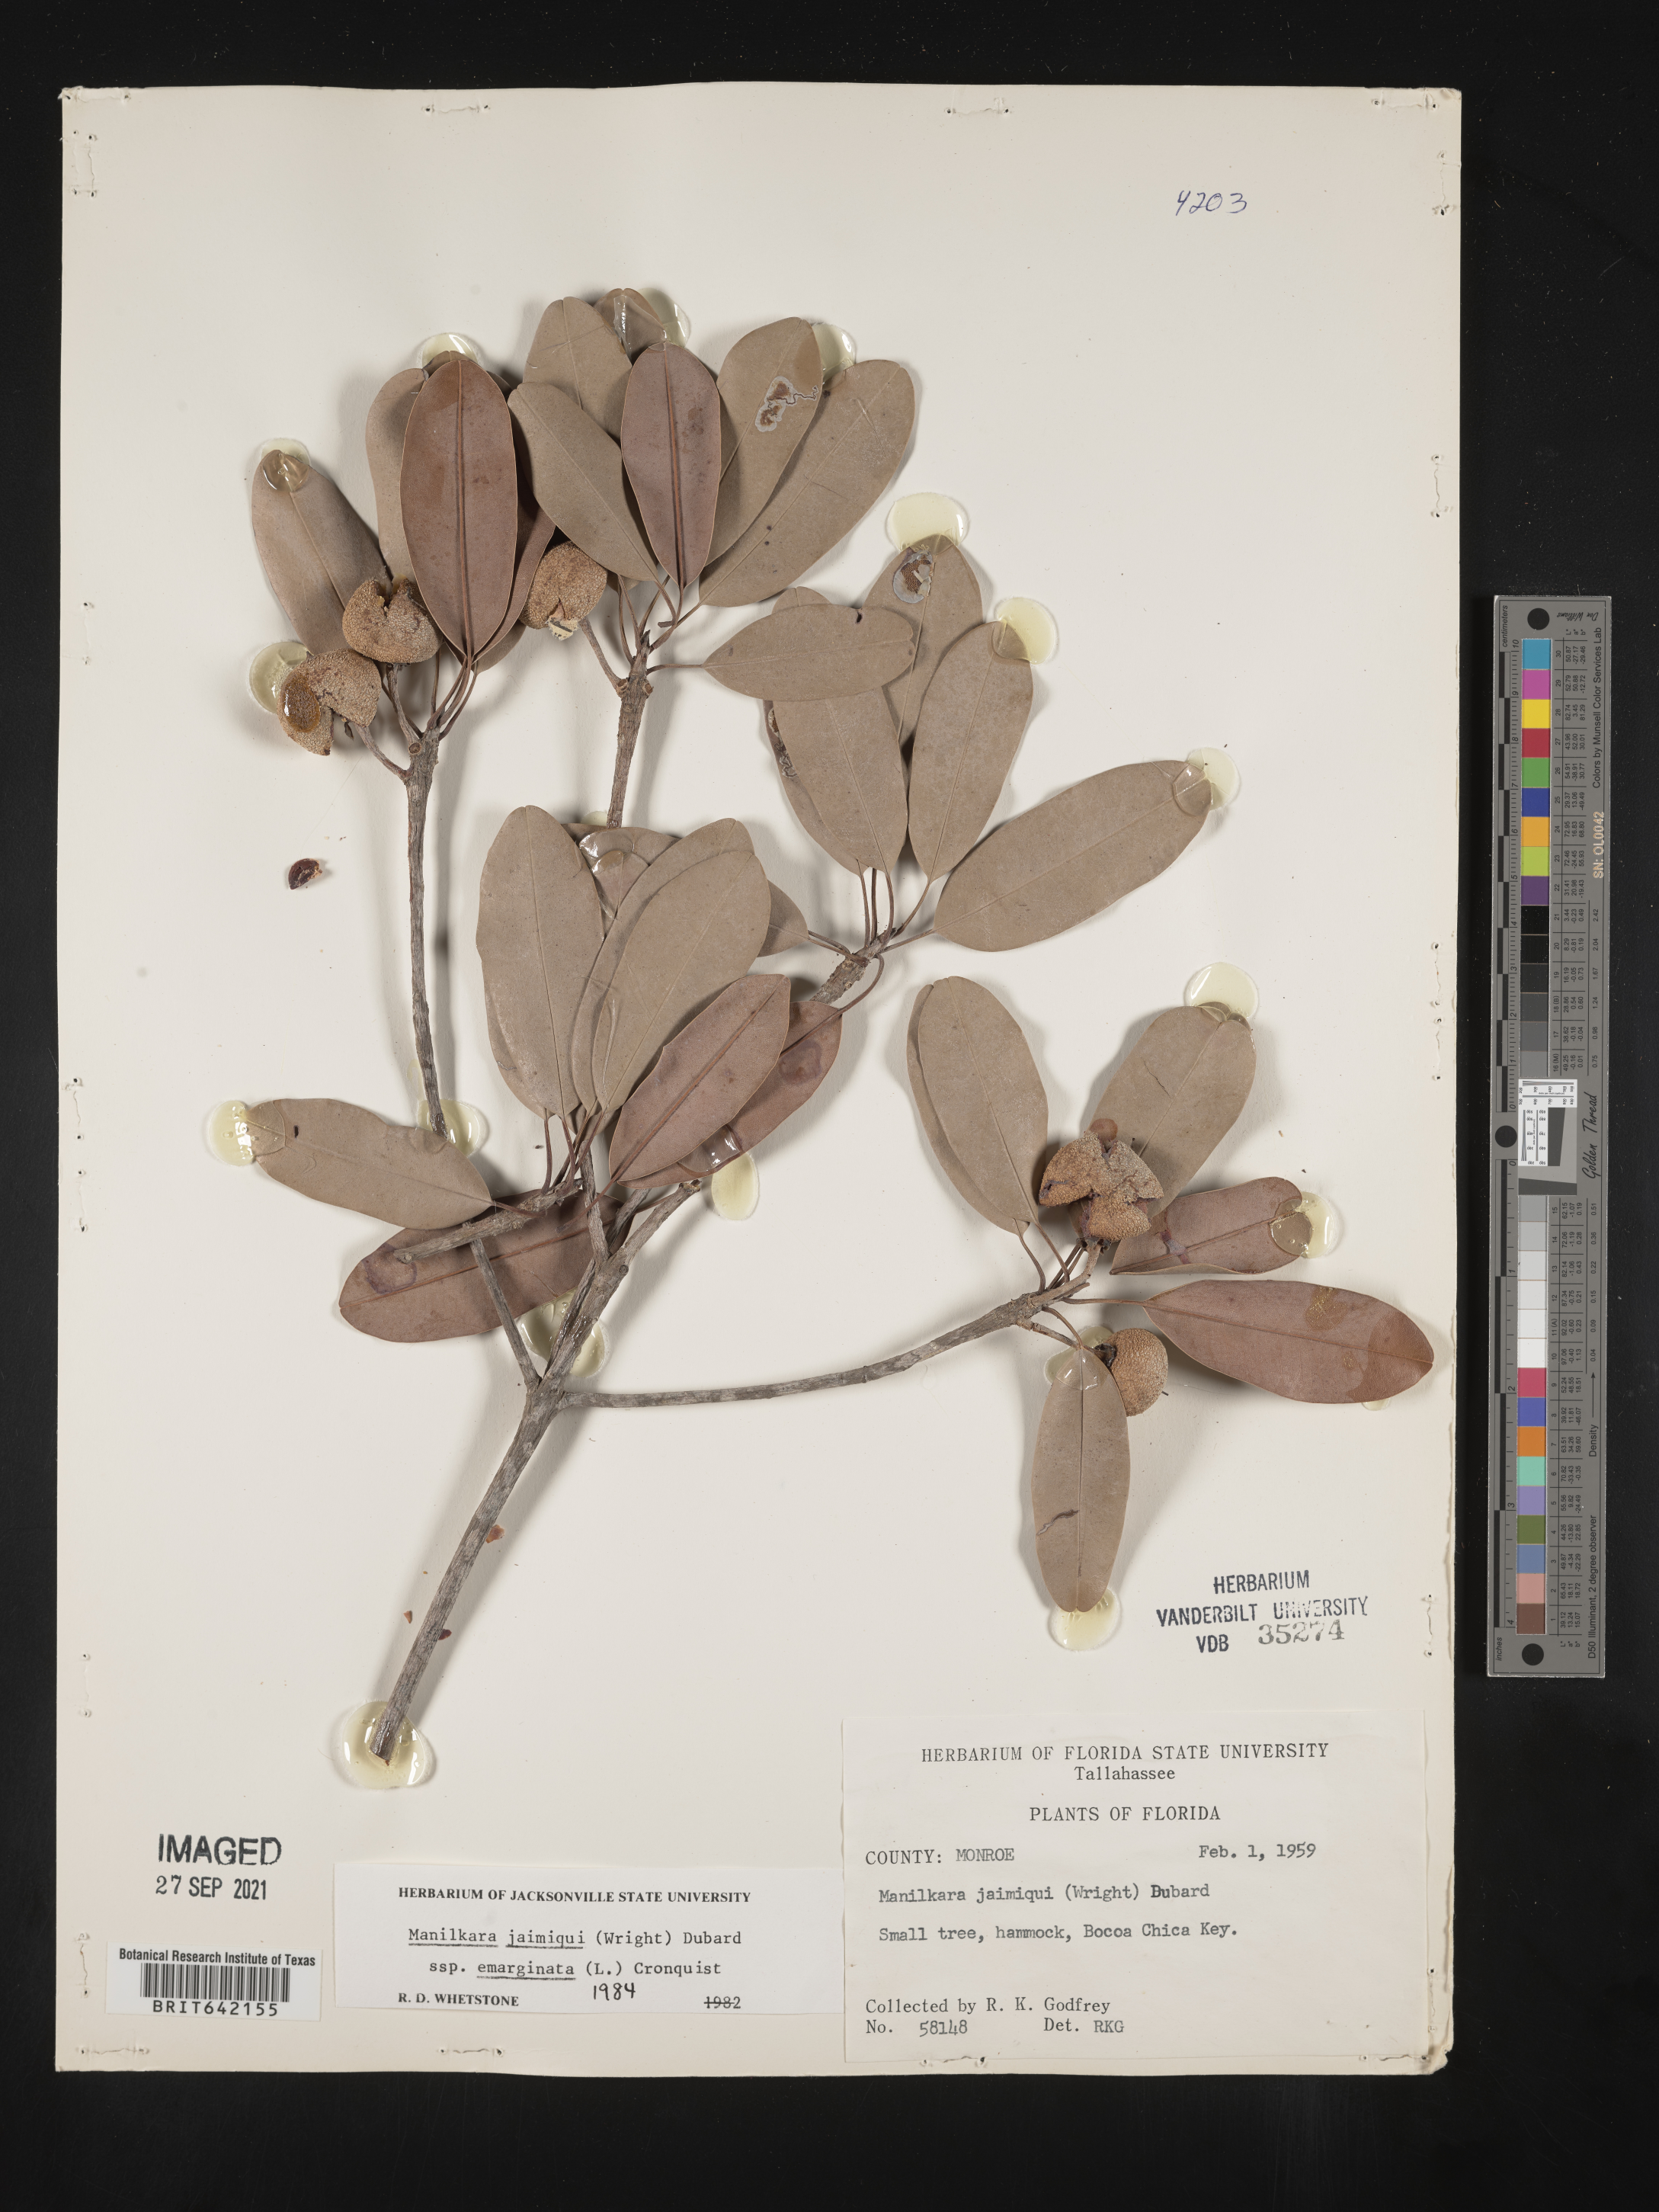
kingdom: Plantae
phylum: Tracheophyta
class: Magnoliopsida
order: Ericales
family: Sapotaceae
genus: Manilkara
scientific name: Manilkara jaimiqui
